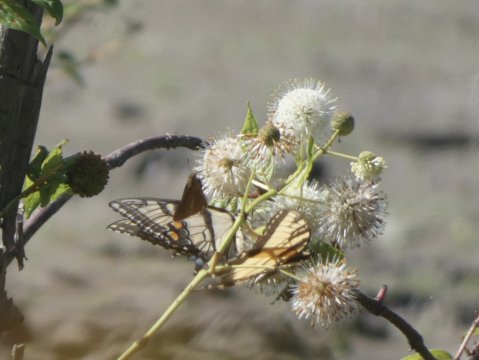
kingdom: Animalia
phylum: Arthropoda
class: Insecta
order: Lepidoptera
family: Papilionidae
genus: Pterourus
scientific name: Pterourus glaucus
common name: Eastern Tiger Swallowtail
